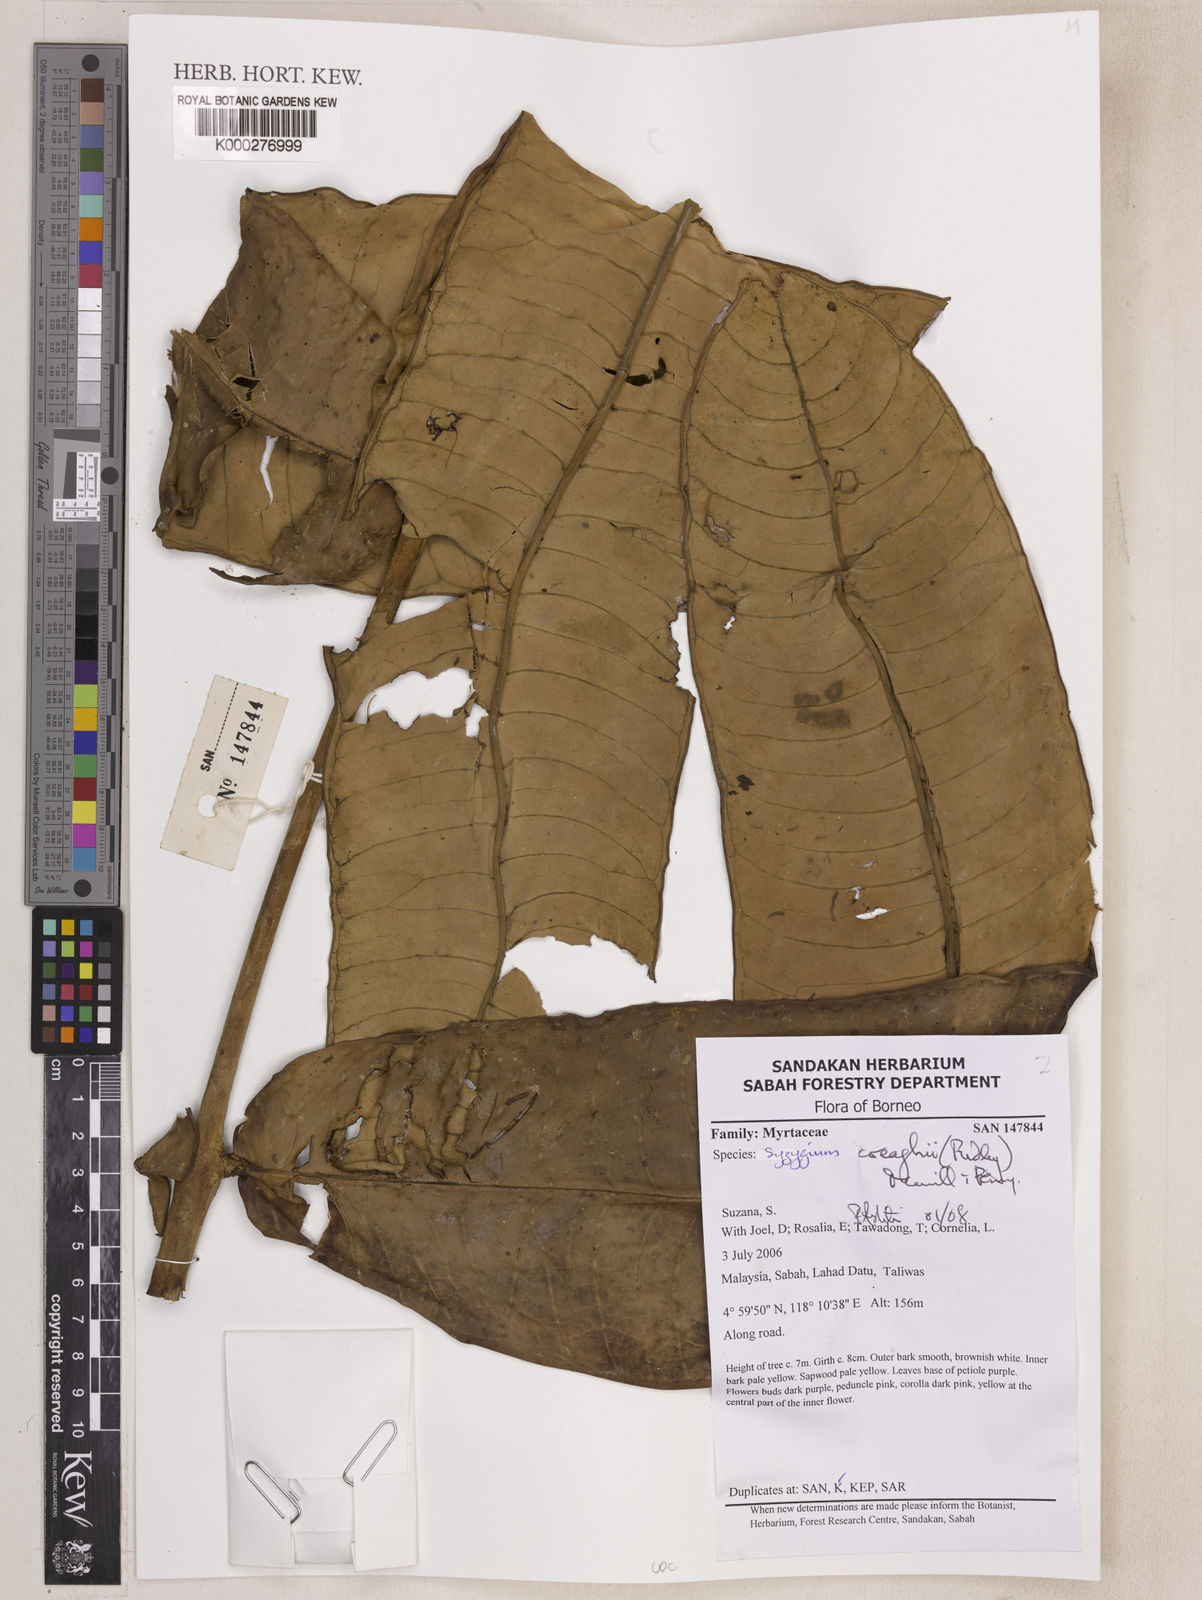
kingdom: Plantae
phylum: Tracheophyta
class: Magnoliopsida
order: Myrtales
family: Myrtaceae
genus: Syzygium
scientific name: Syzygium creaghii
